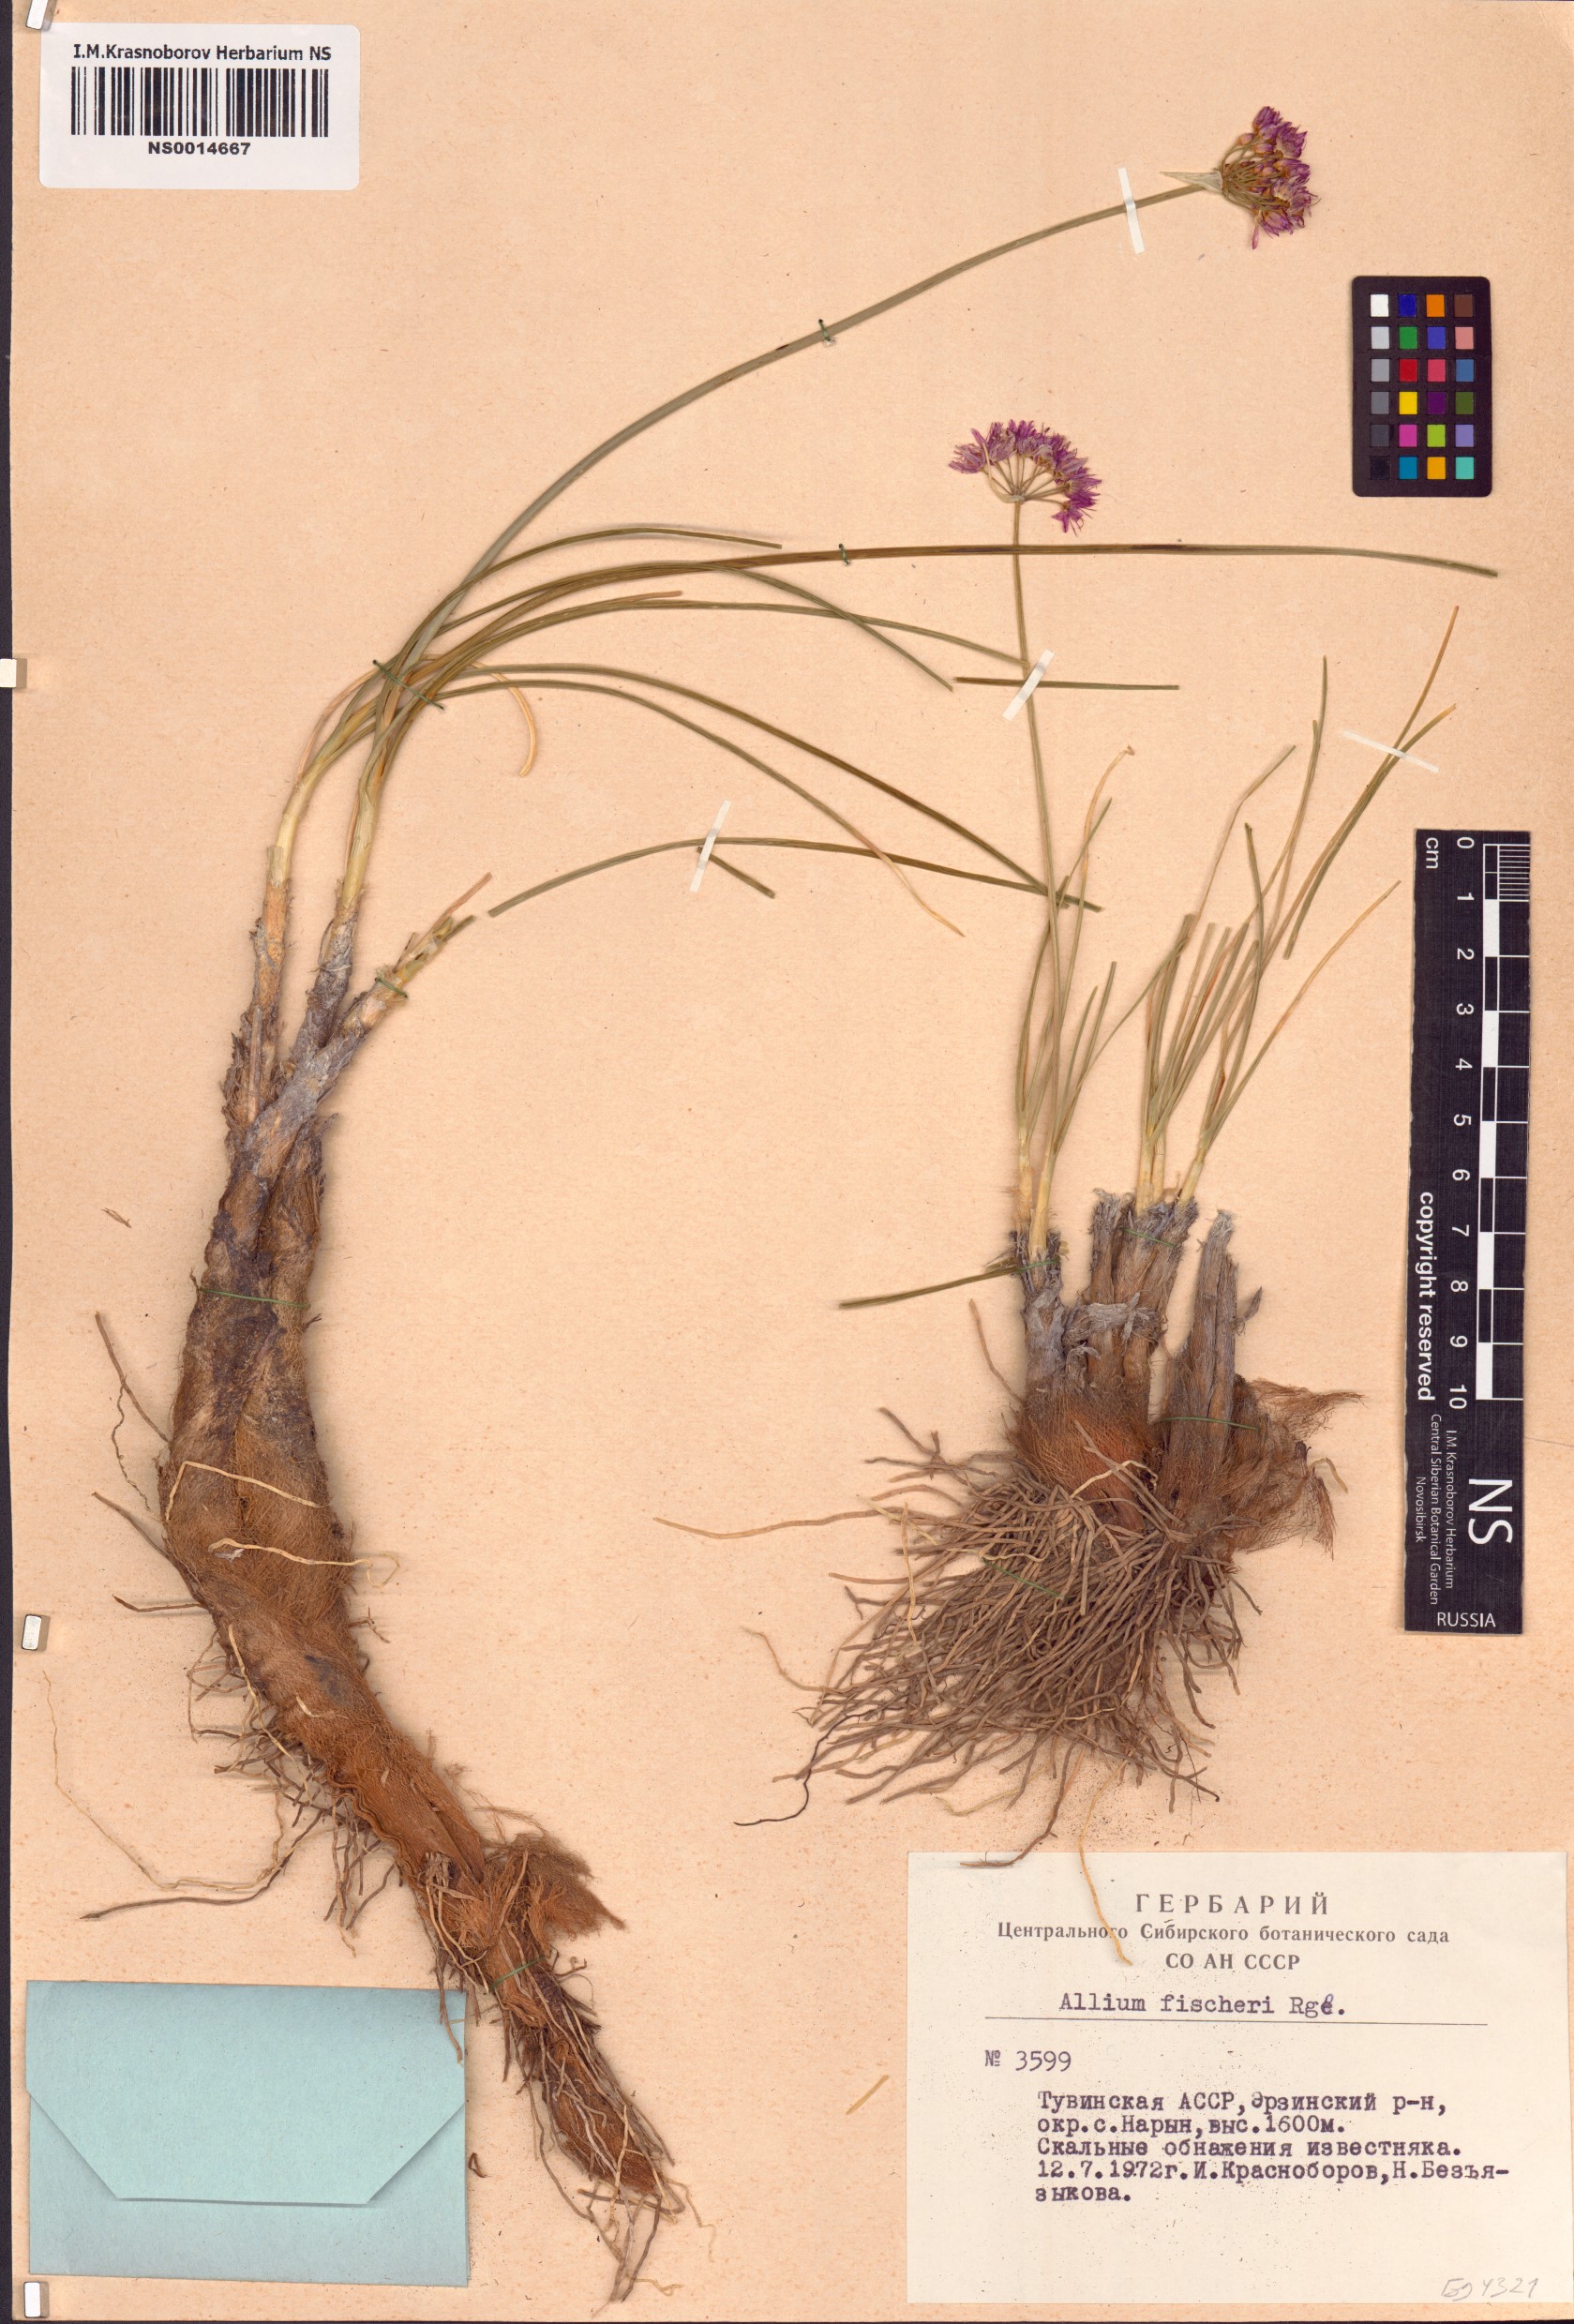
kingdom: Plantae
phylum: Tracheophyta
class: Liliopsida
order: Asparagales
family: Amaryllidaceae
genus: Allium
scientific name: Allium eduardi
